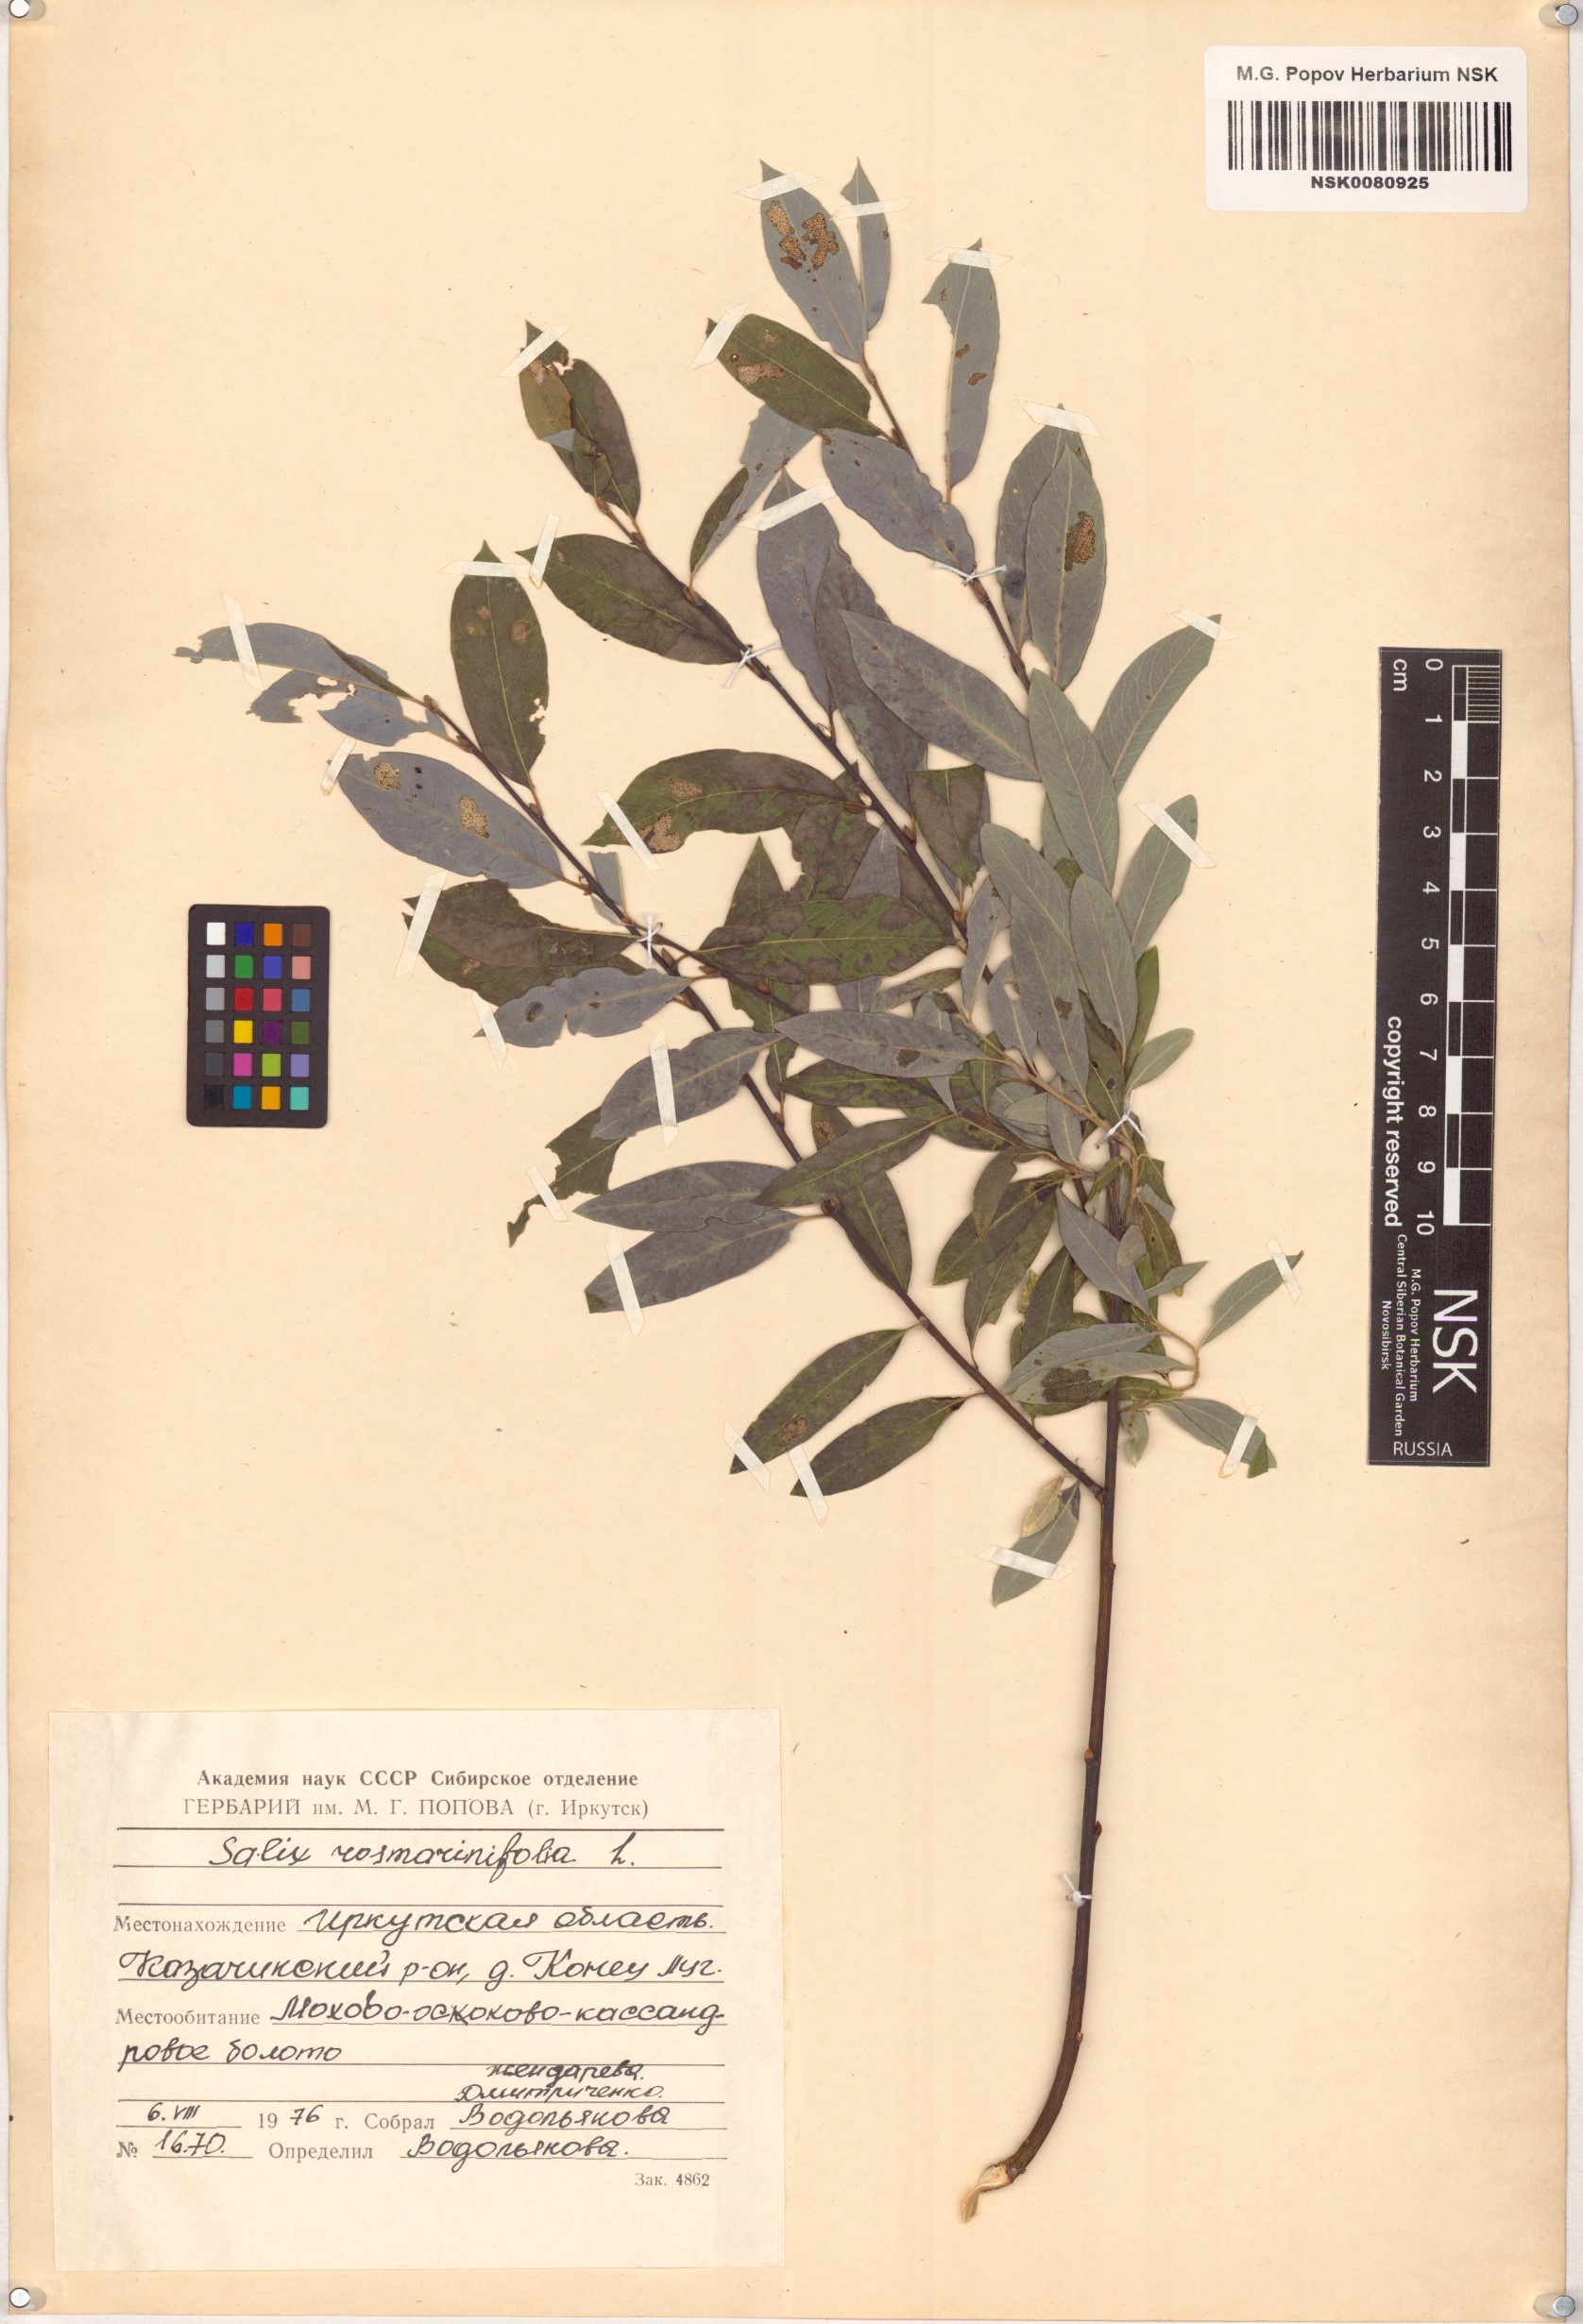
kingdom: Plantae
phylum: Tracheophyta
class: Magnoliopsida
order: Malpighiales
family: Salicaceae
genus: Salix
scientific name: Salix rosmarinifolia
